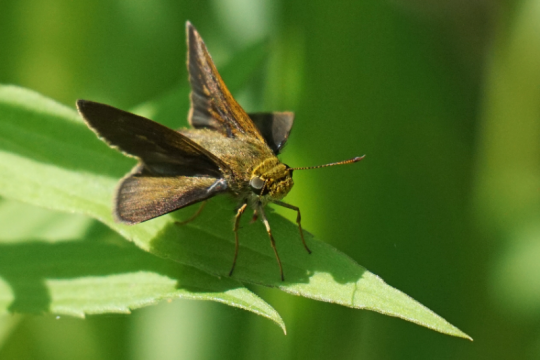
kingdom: Animalia
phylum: Arthropoda
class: Insecta
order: Lepidoptera
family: Hesperiidae
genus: Euphyes
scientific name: Euphyes vestris
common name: Dun Skipper
